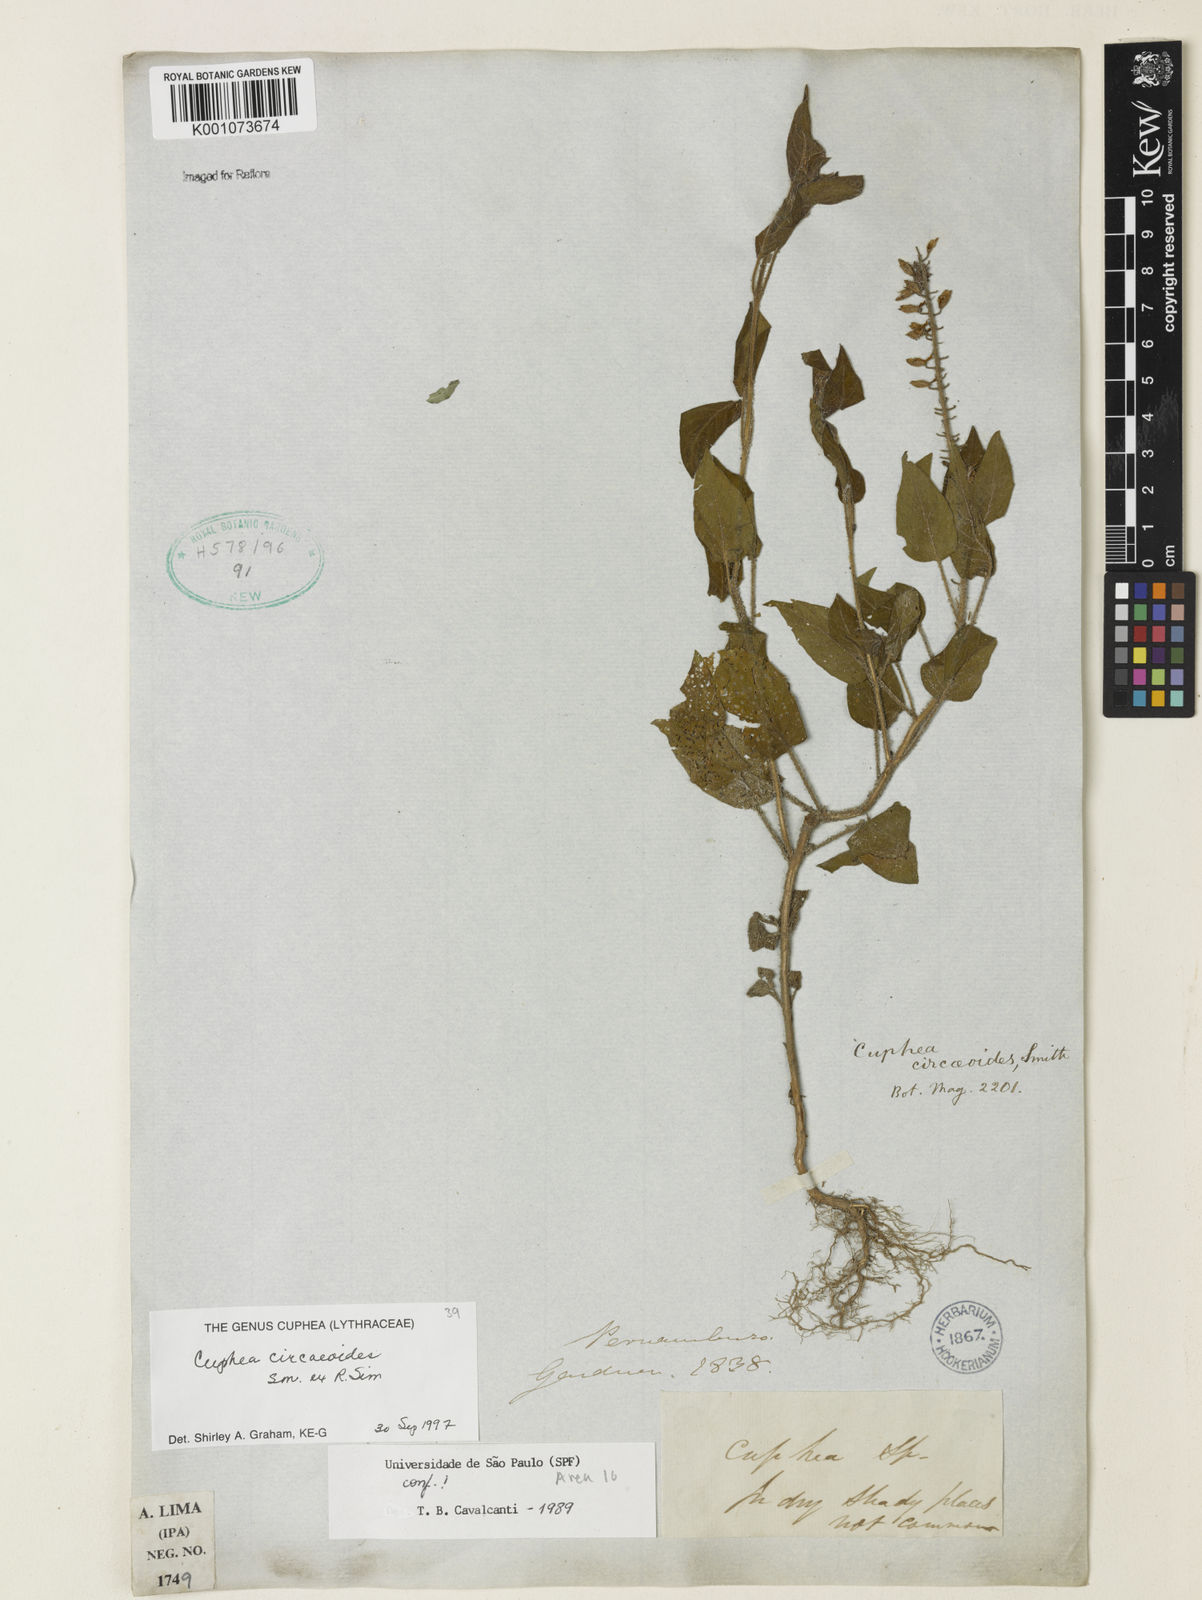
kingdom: Plantae
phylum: Tracheophyta
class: Magnoliopsida
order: Myrtales
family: Lythraceae
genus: Cuphea
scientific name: Cuphea circaeoides
